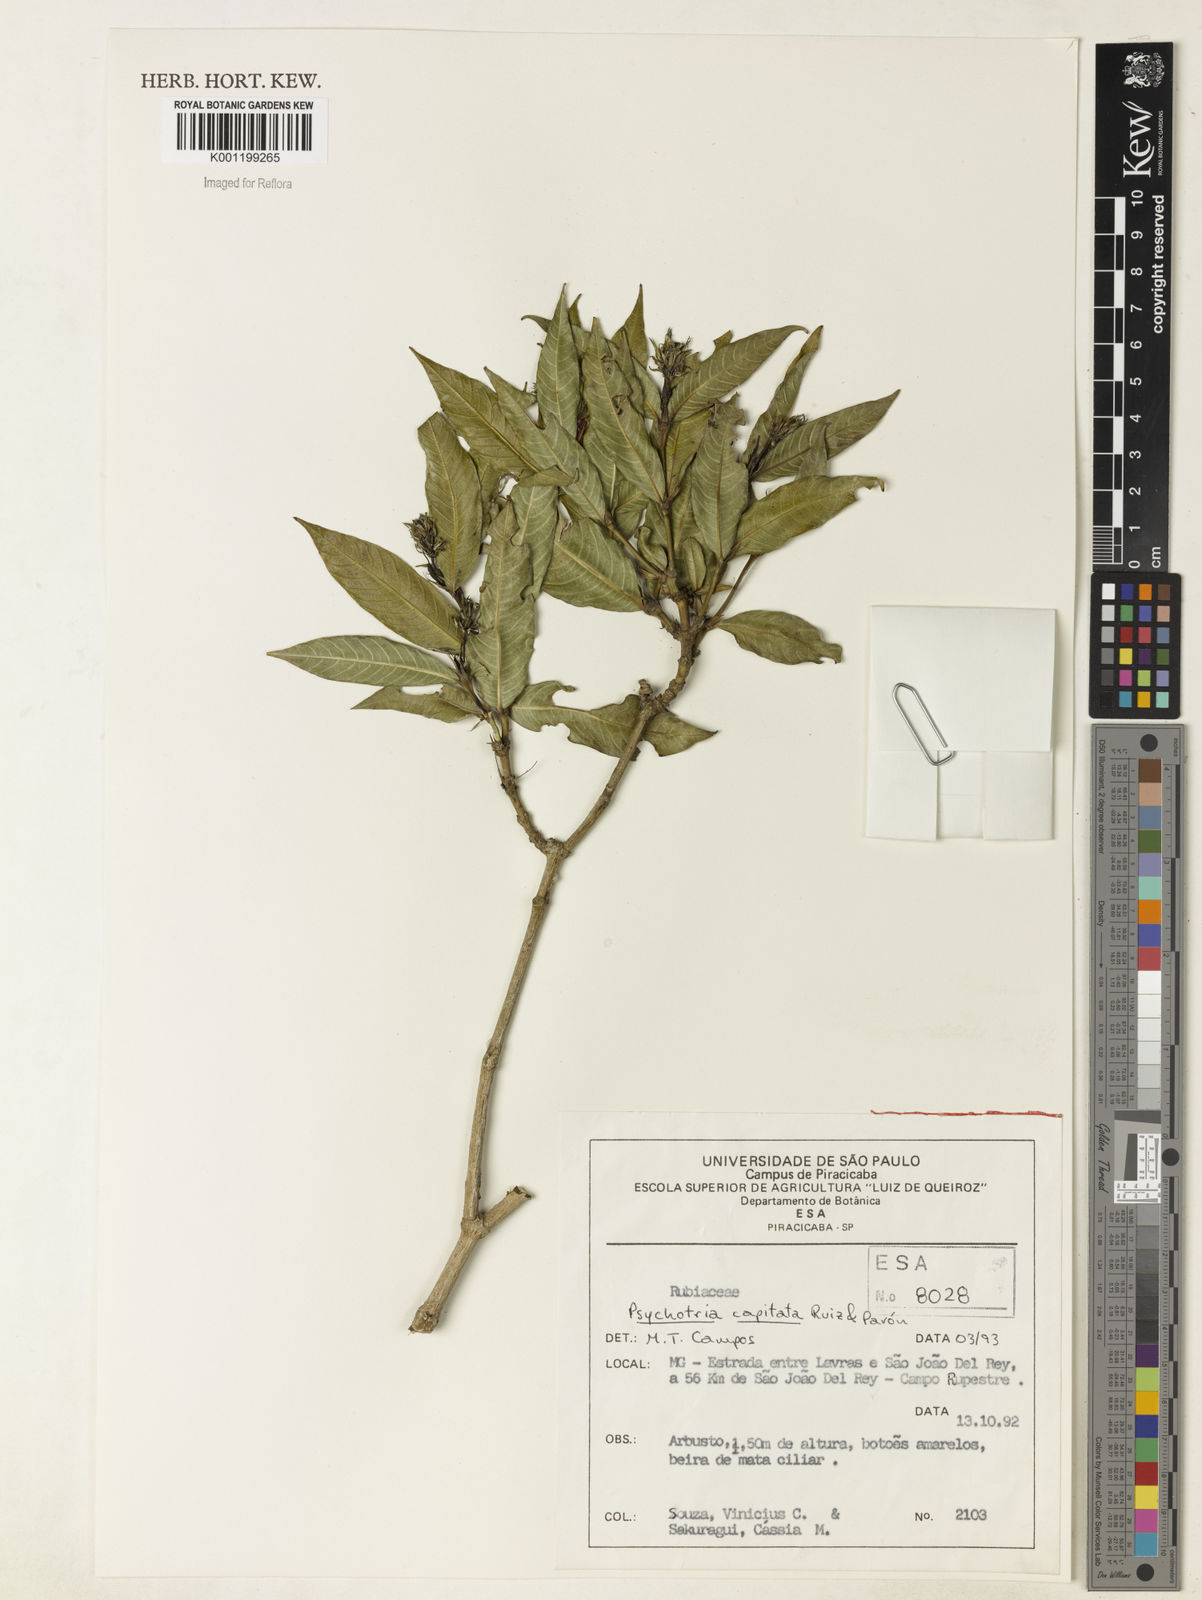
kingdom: Plantae
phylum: Tracheophyta
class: Magnoliopsida
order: Gentianales
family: Rubiaceae
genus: Palicourea
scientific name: Palicourea violacea
